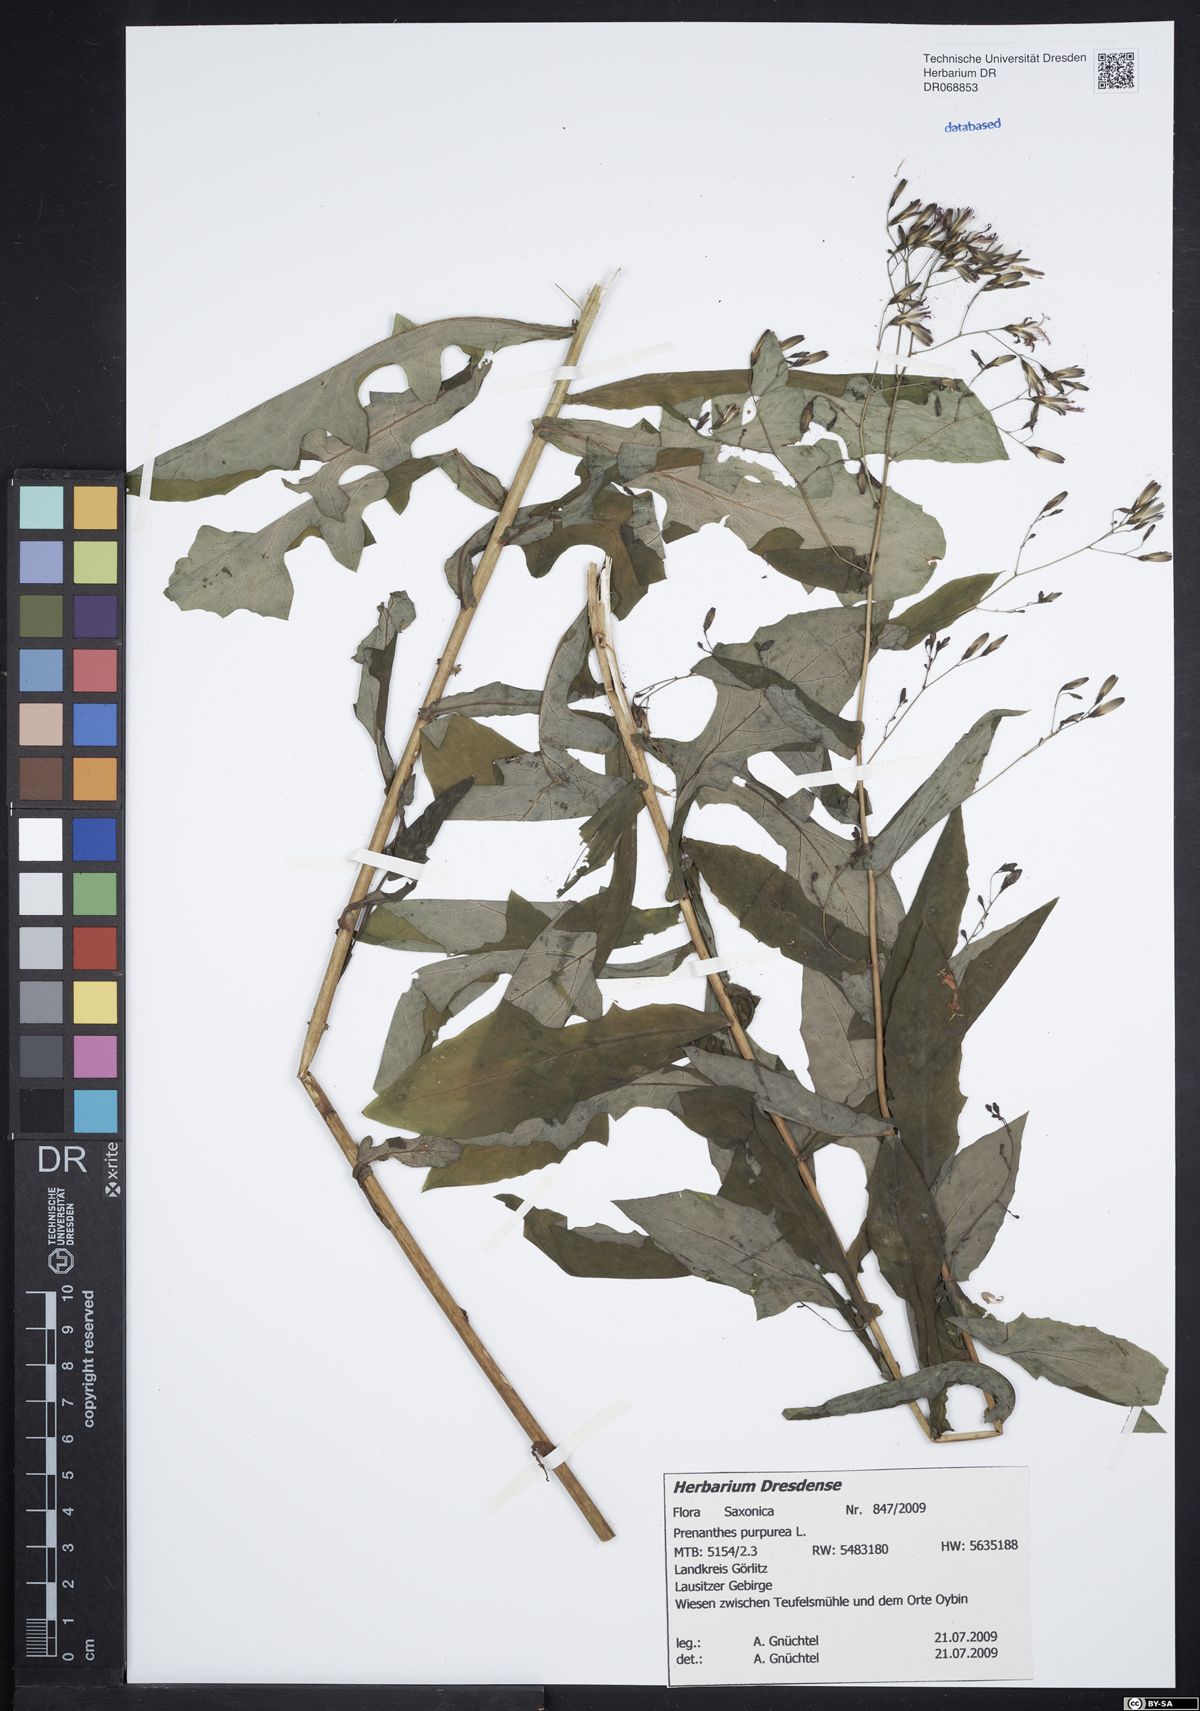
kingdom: Plantae
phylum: Tracheophyta
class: Magnoliopsida
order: Asterales
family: Asteraceae
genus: Prenanthes
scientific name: Prenanthes purpurea
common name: Purple lettuce
